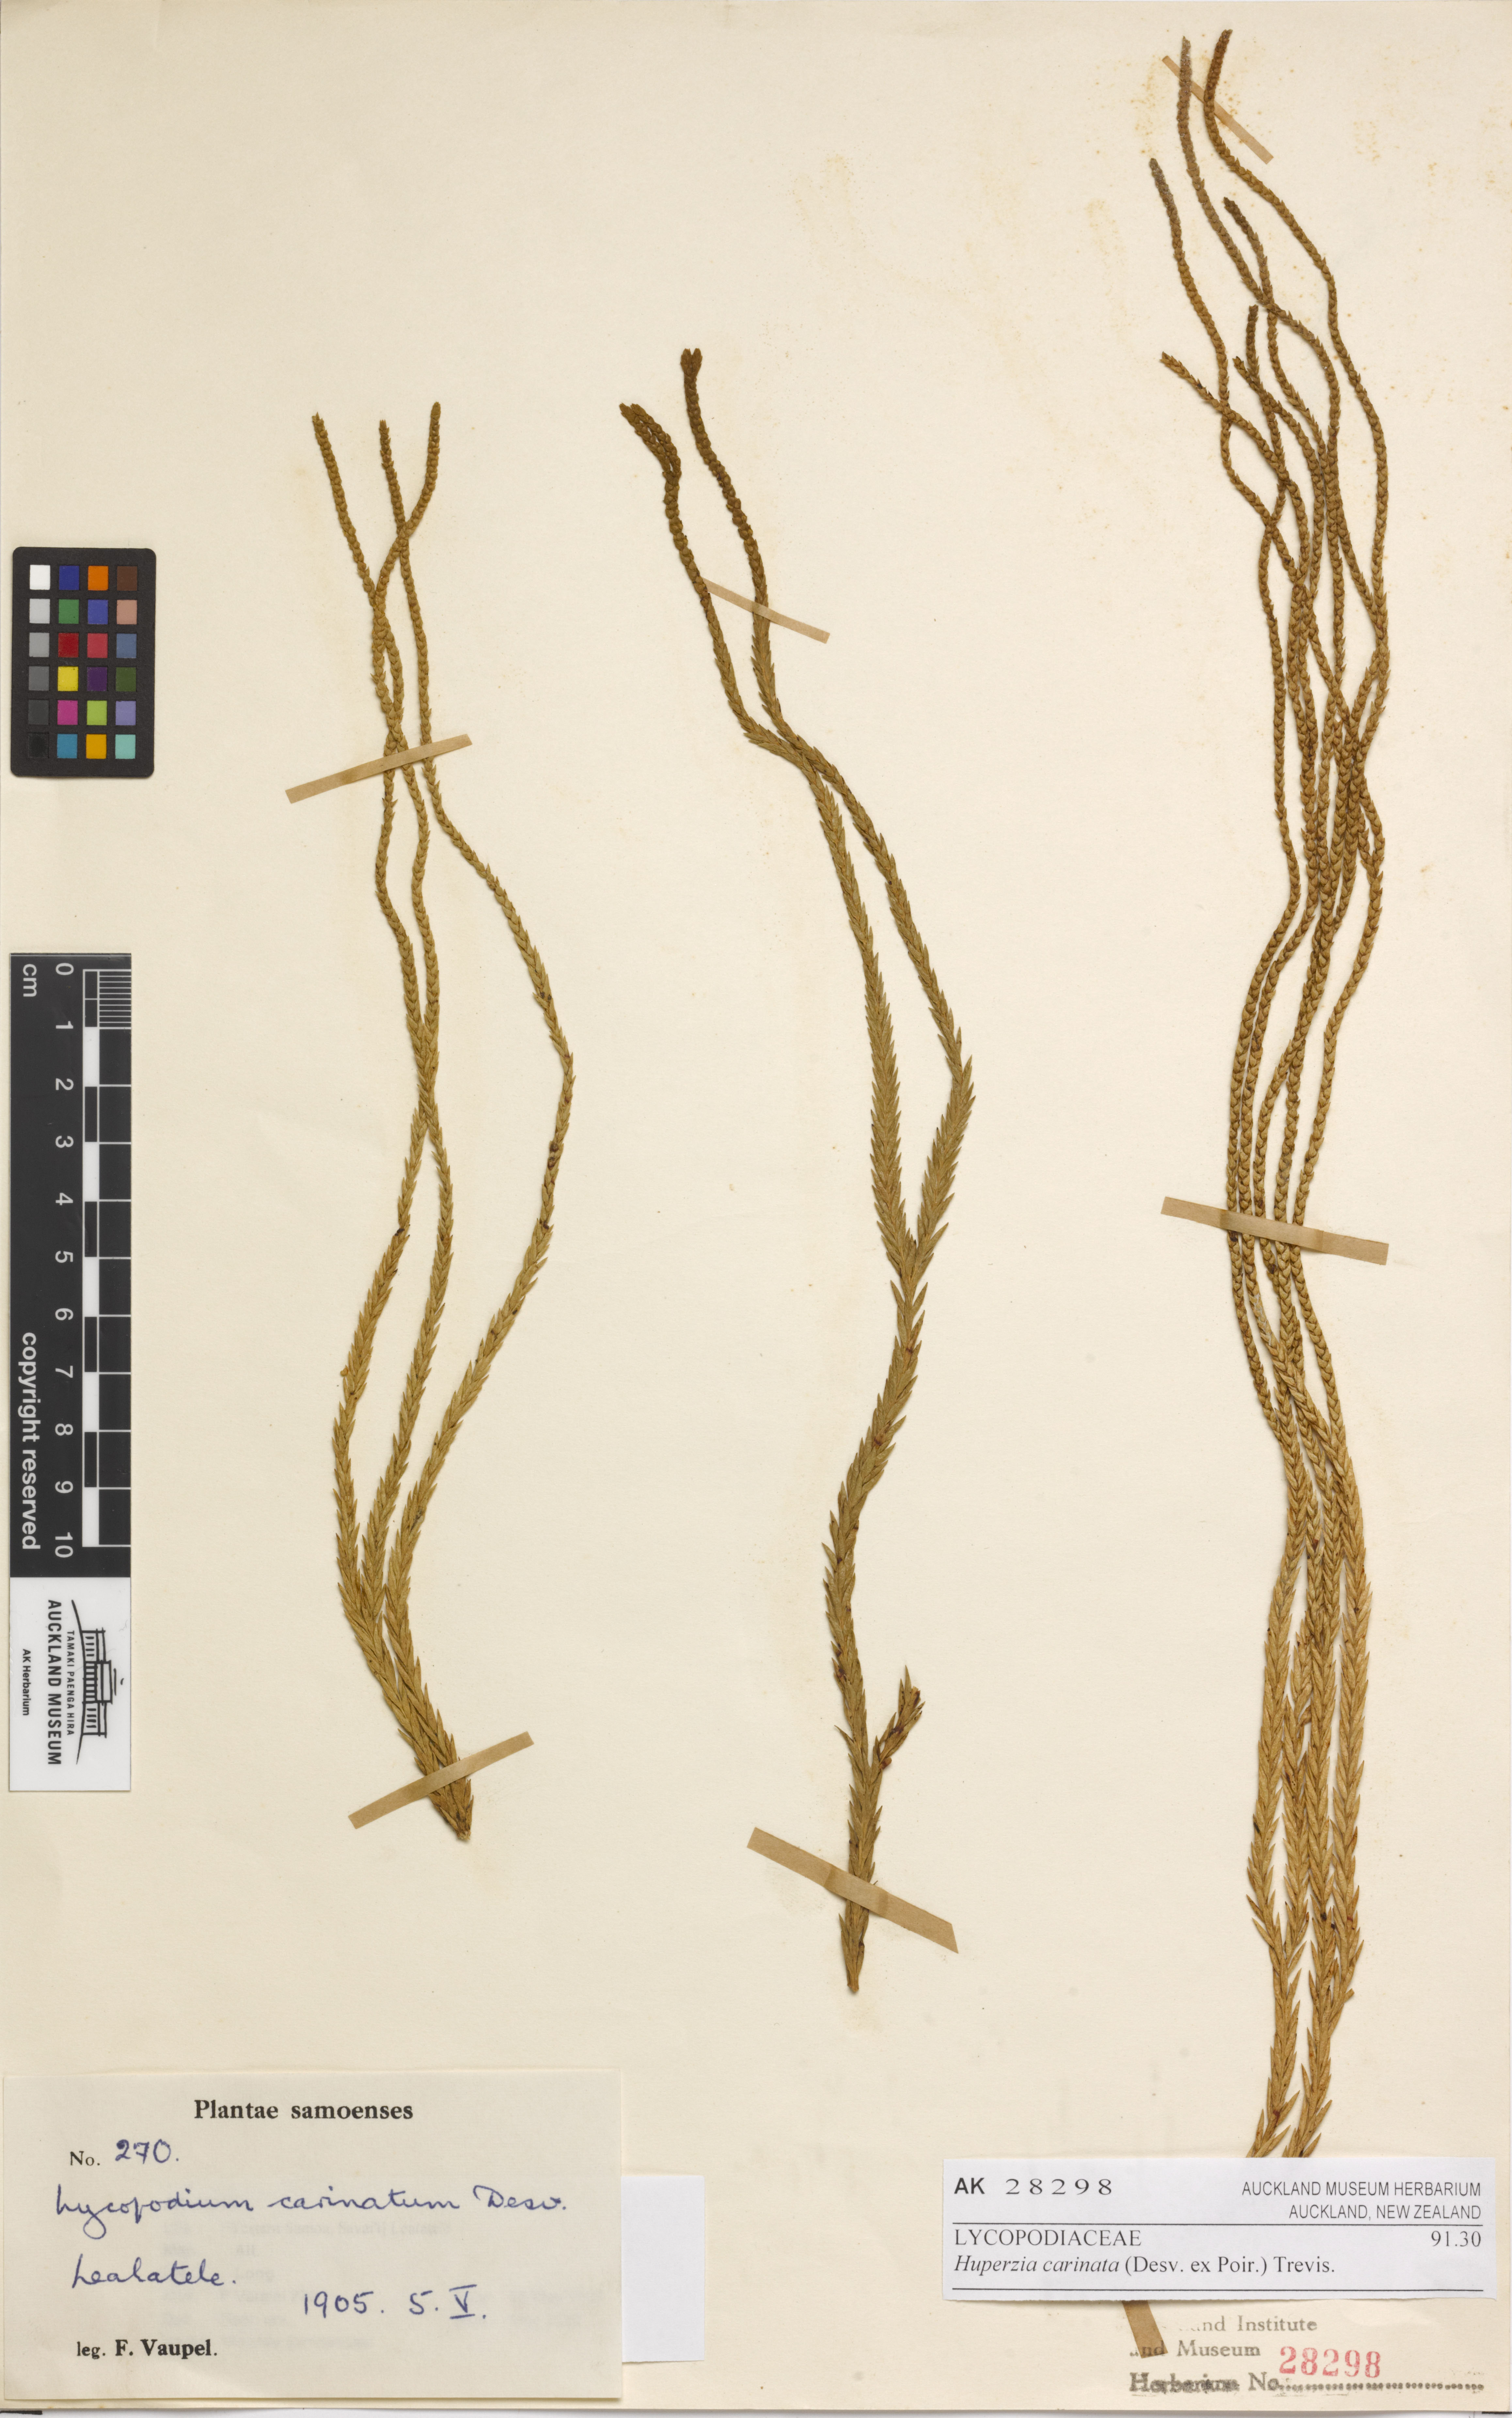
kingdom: Plantae
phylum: Tracheophyta
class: Lycopodiopsida
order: Lycopodiales
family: Lycopodiaceae
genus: Phlegmariurus
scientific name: Phlegmariurus carinatus
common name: Keeled tassel-fern
